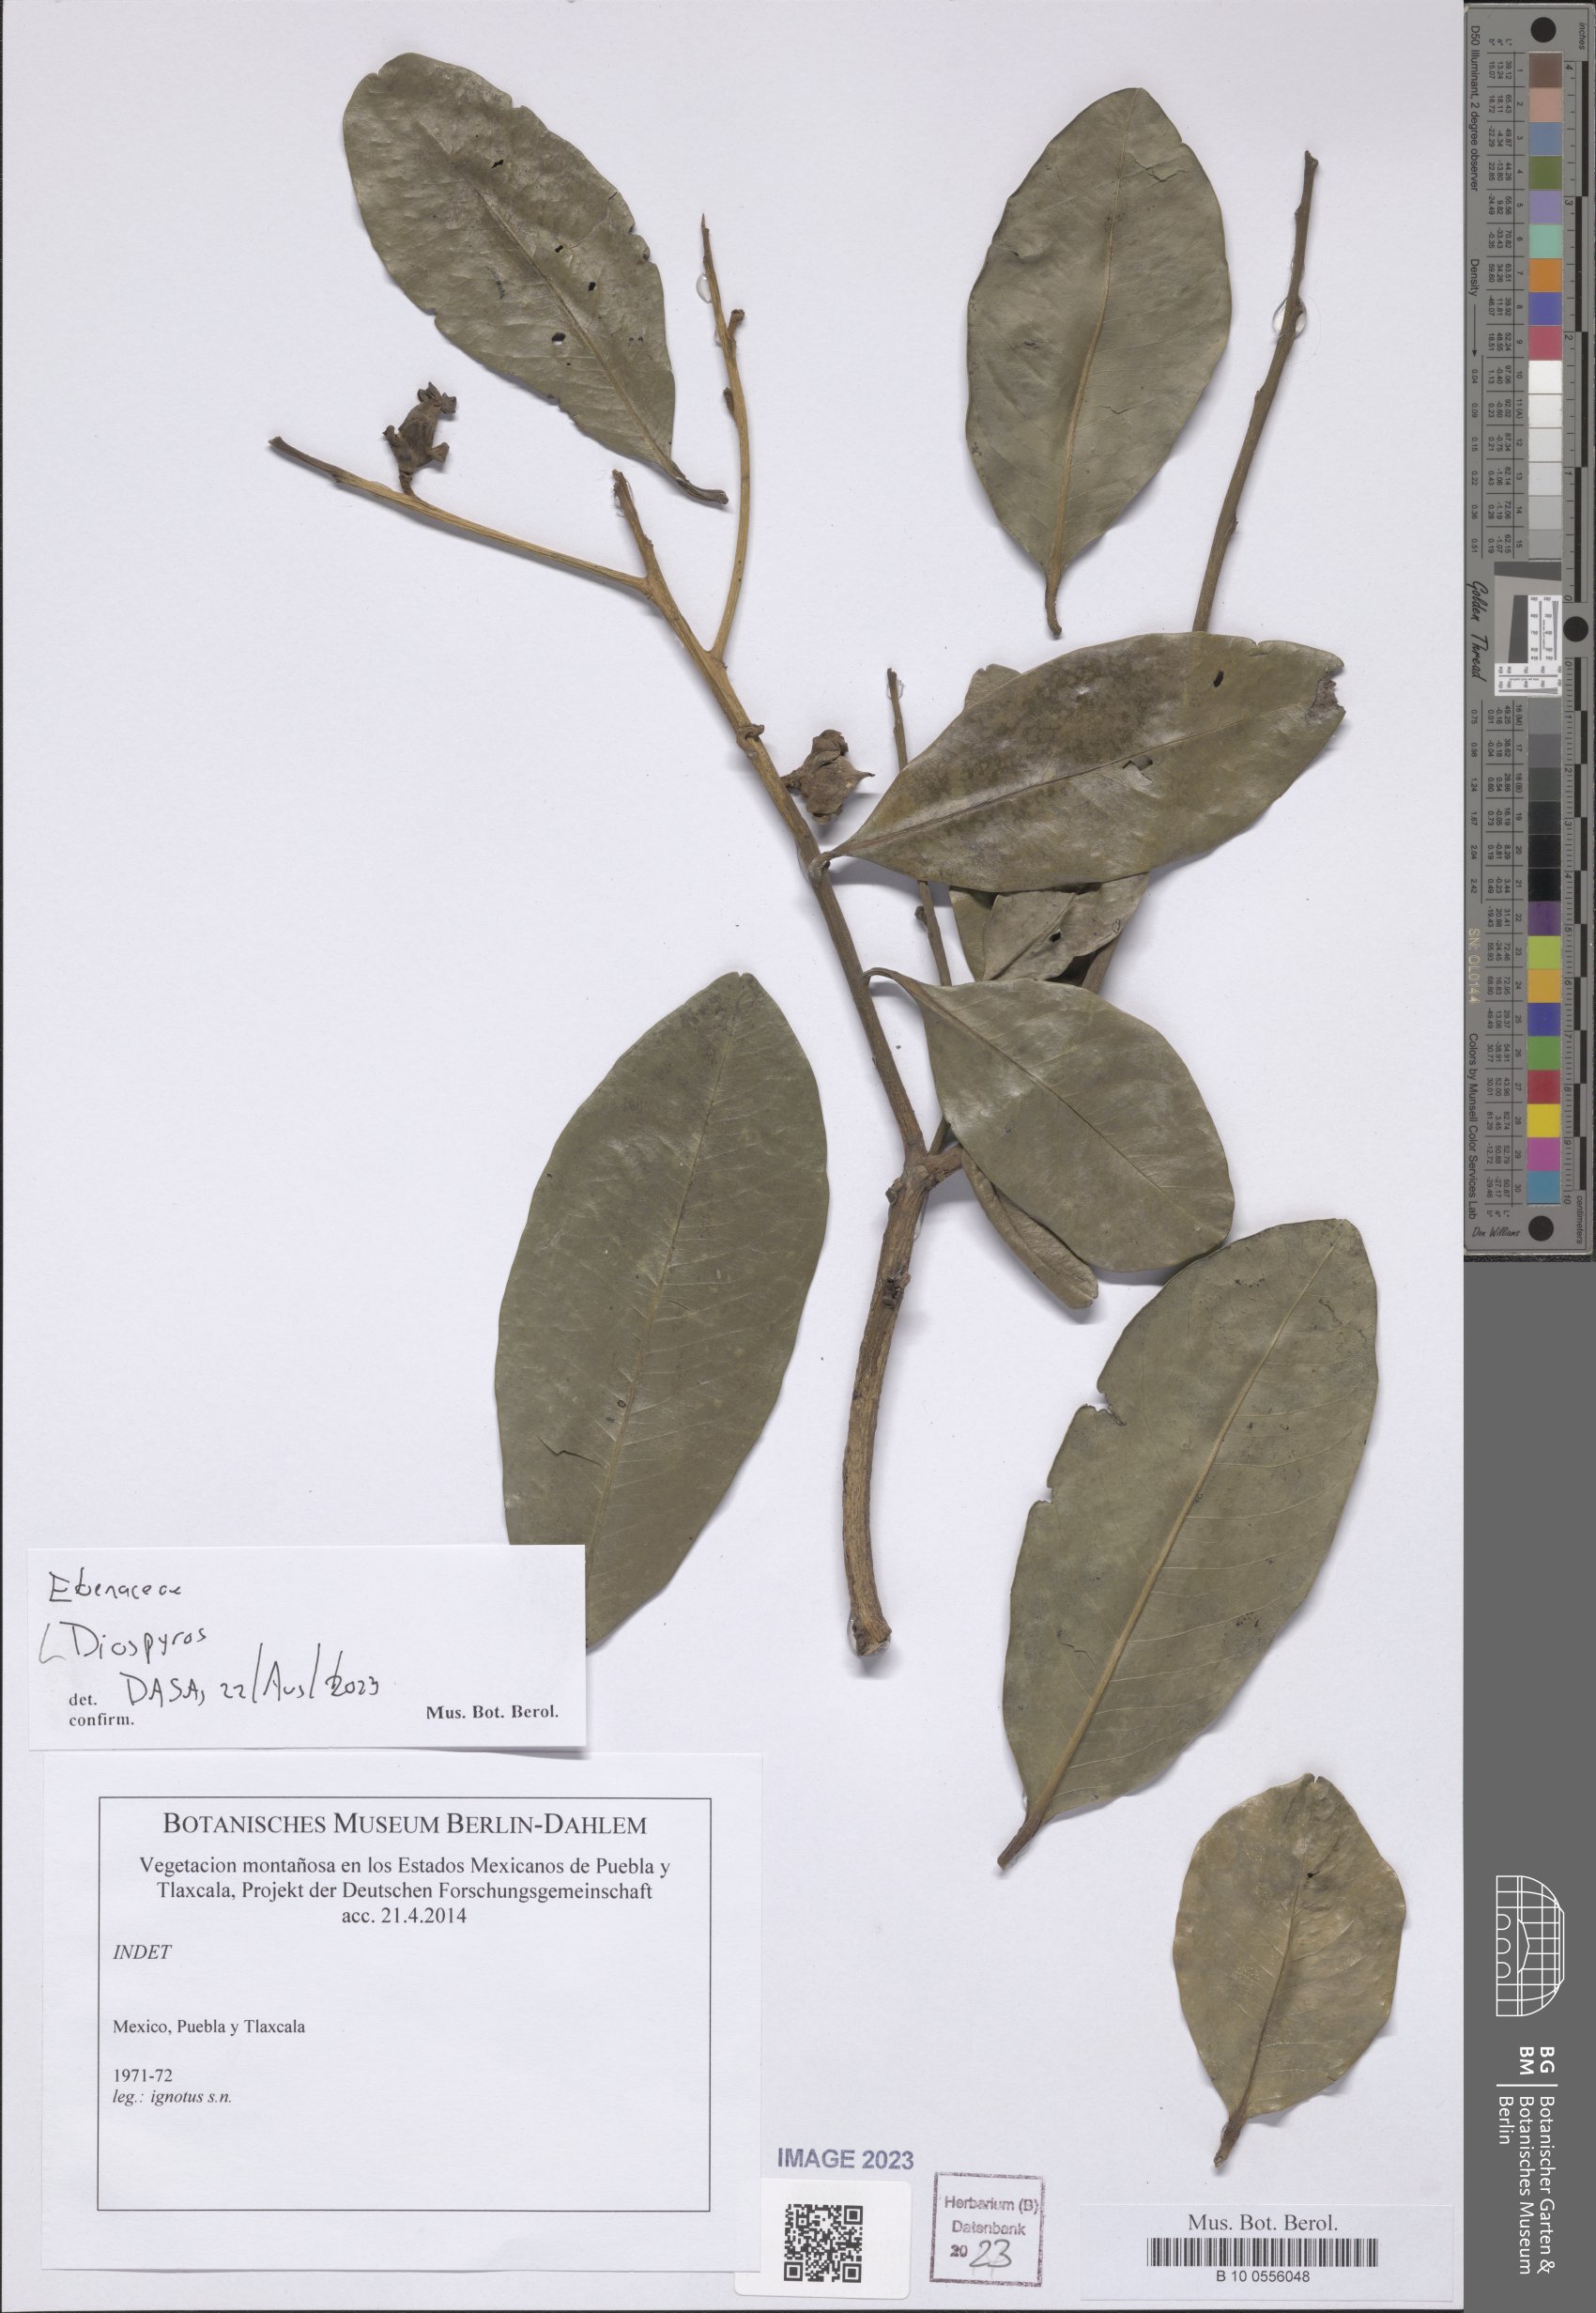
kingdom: Plantae
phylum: Tracheophyta
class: Magnoliopsida
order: Ericales
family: Ebenaceae
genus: Diospyros
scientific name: Diospyros
